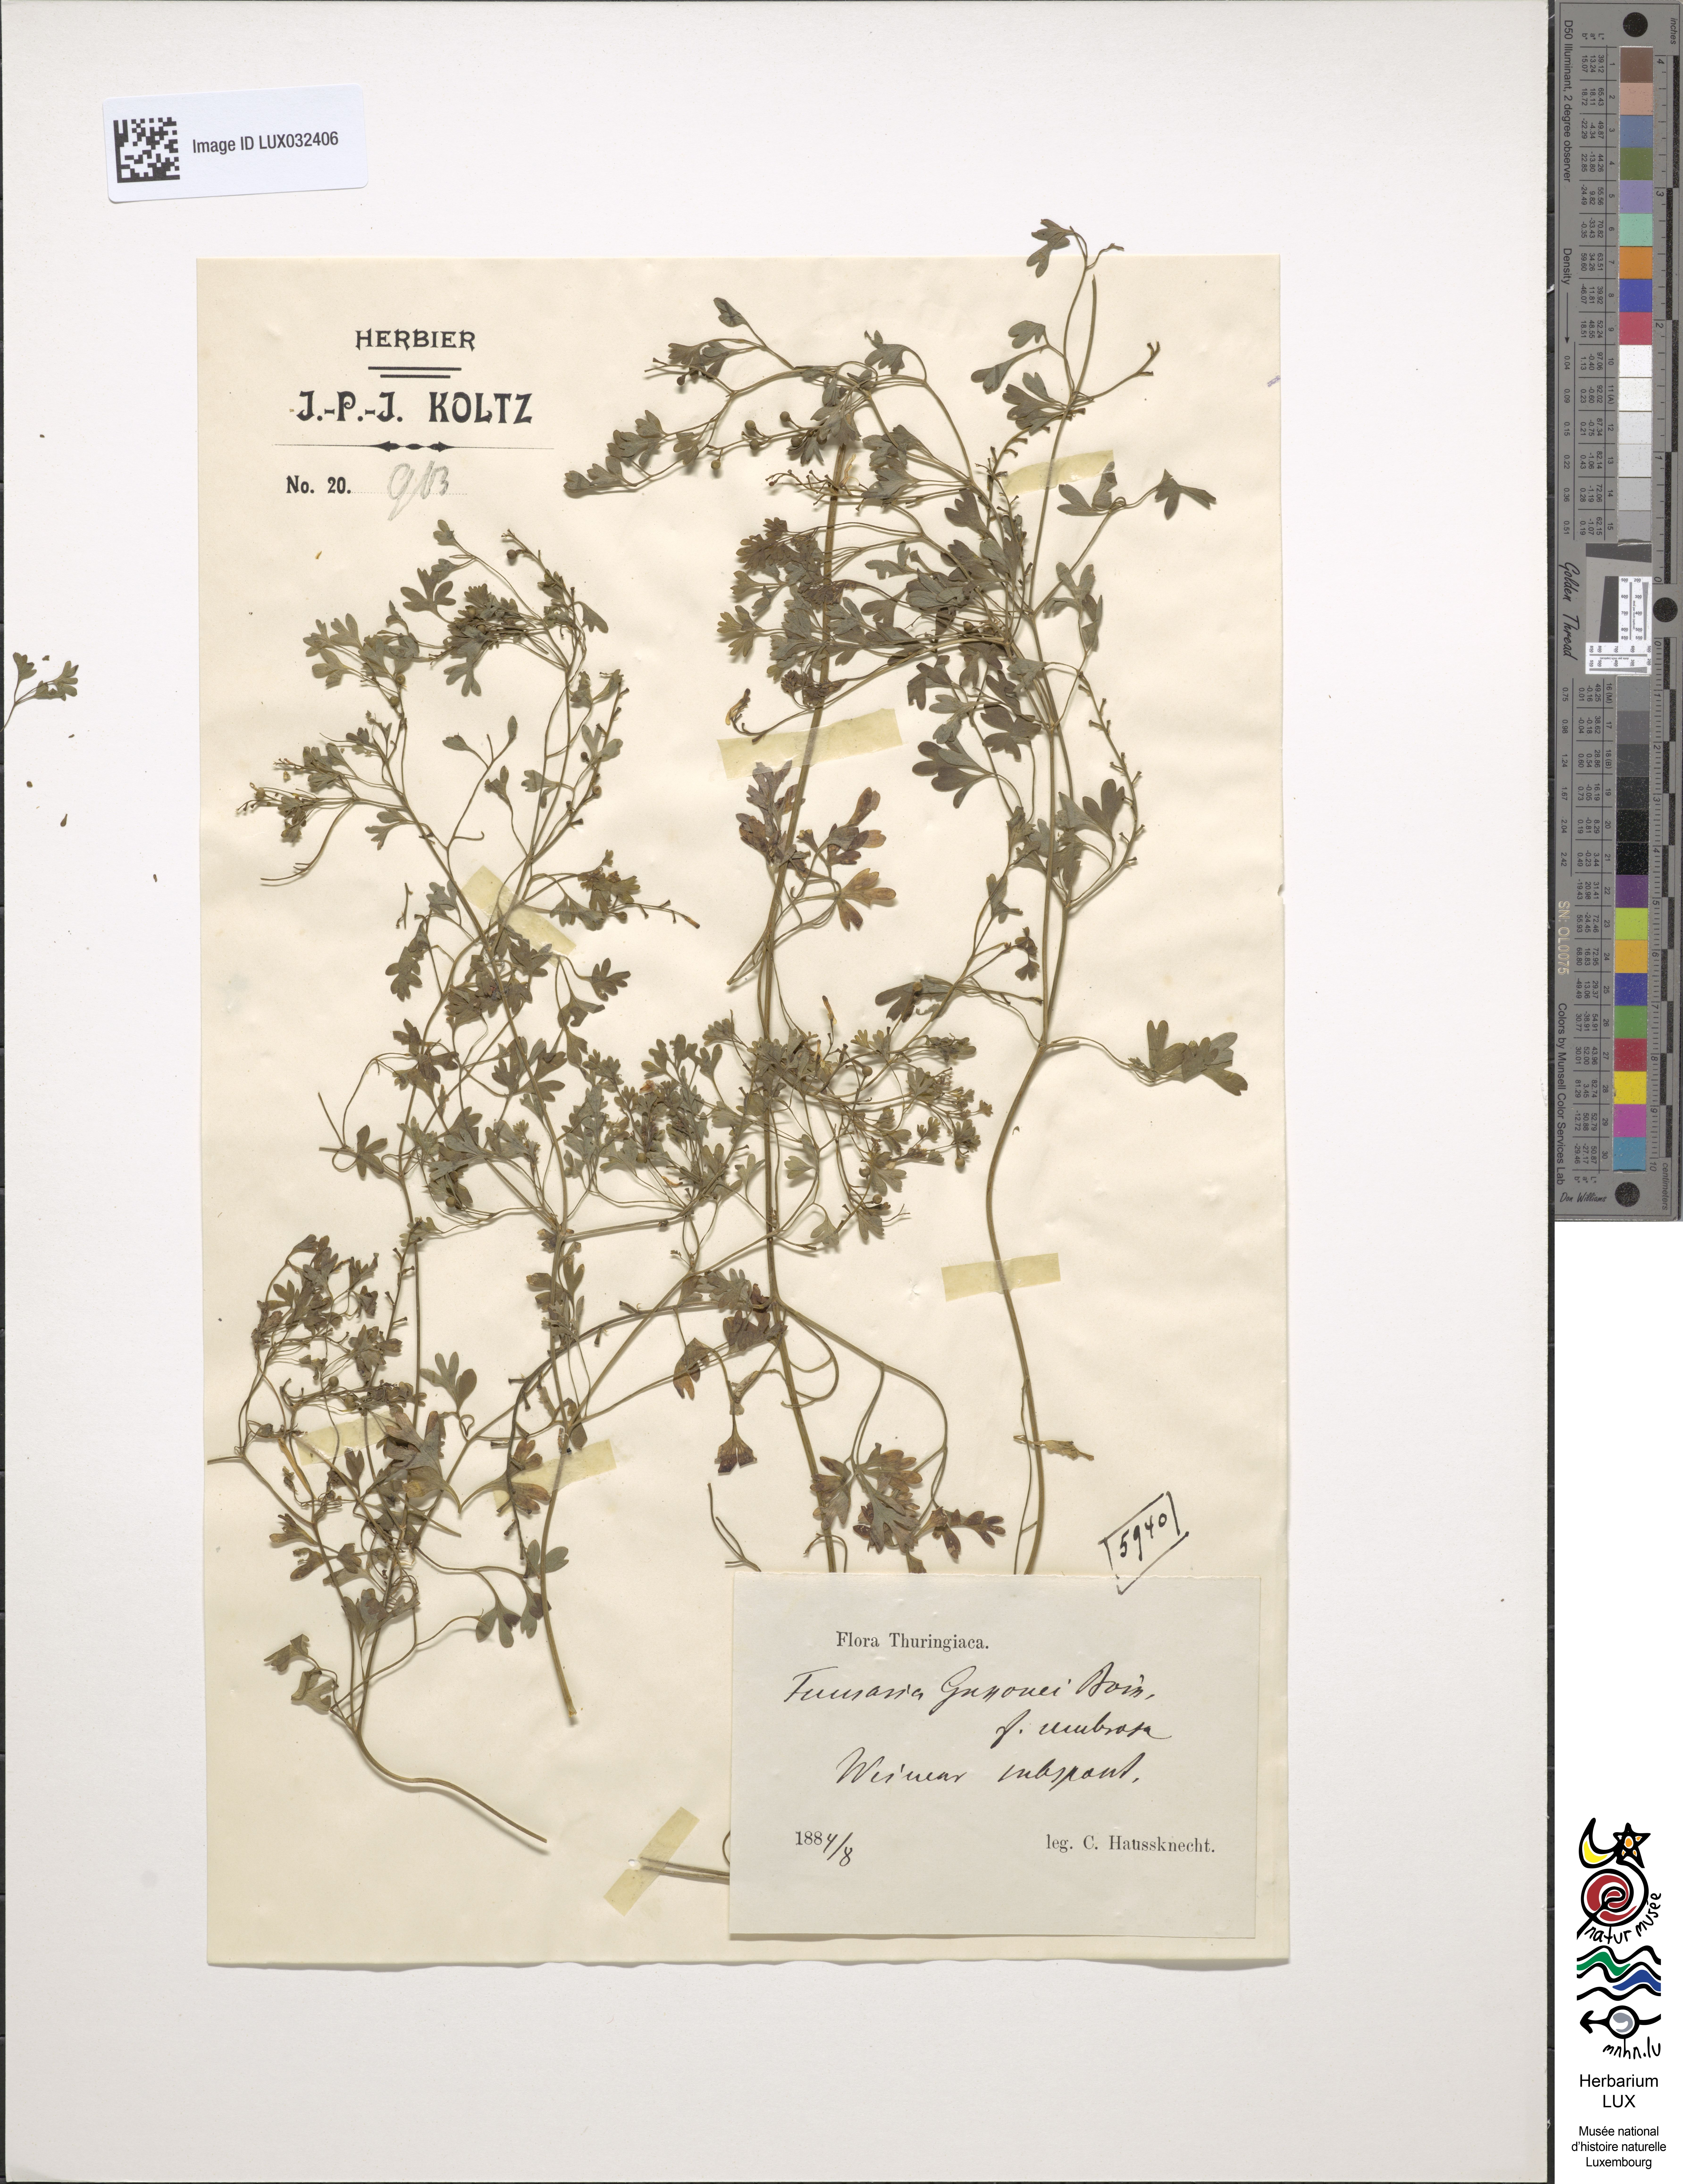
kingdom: Plantae
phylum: Tracheophyta
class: Magnoliopsida
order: Ranunculales
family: Papaveraceae
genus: Fumaria
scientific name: Fumaria bastardii
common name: Tall ramping-fumitory
